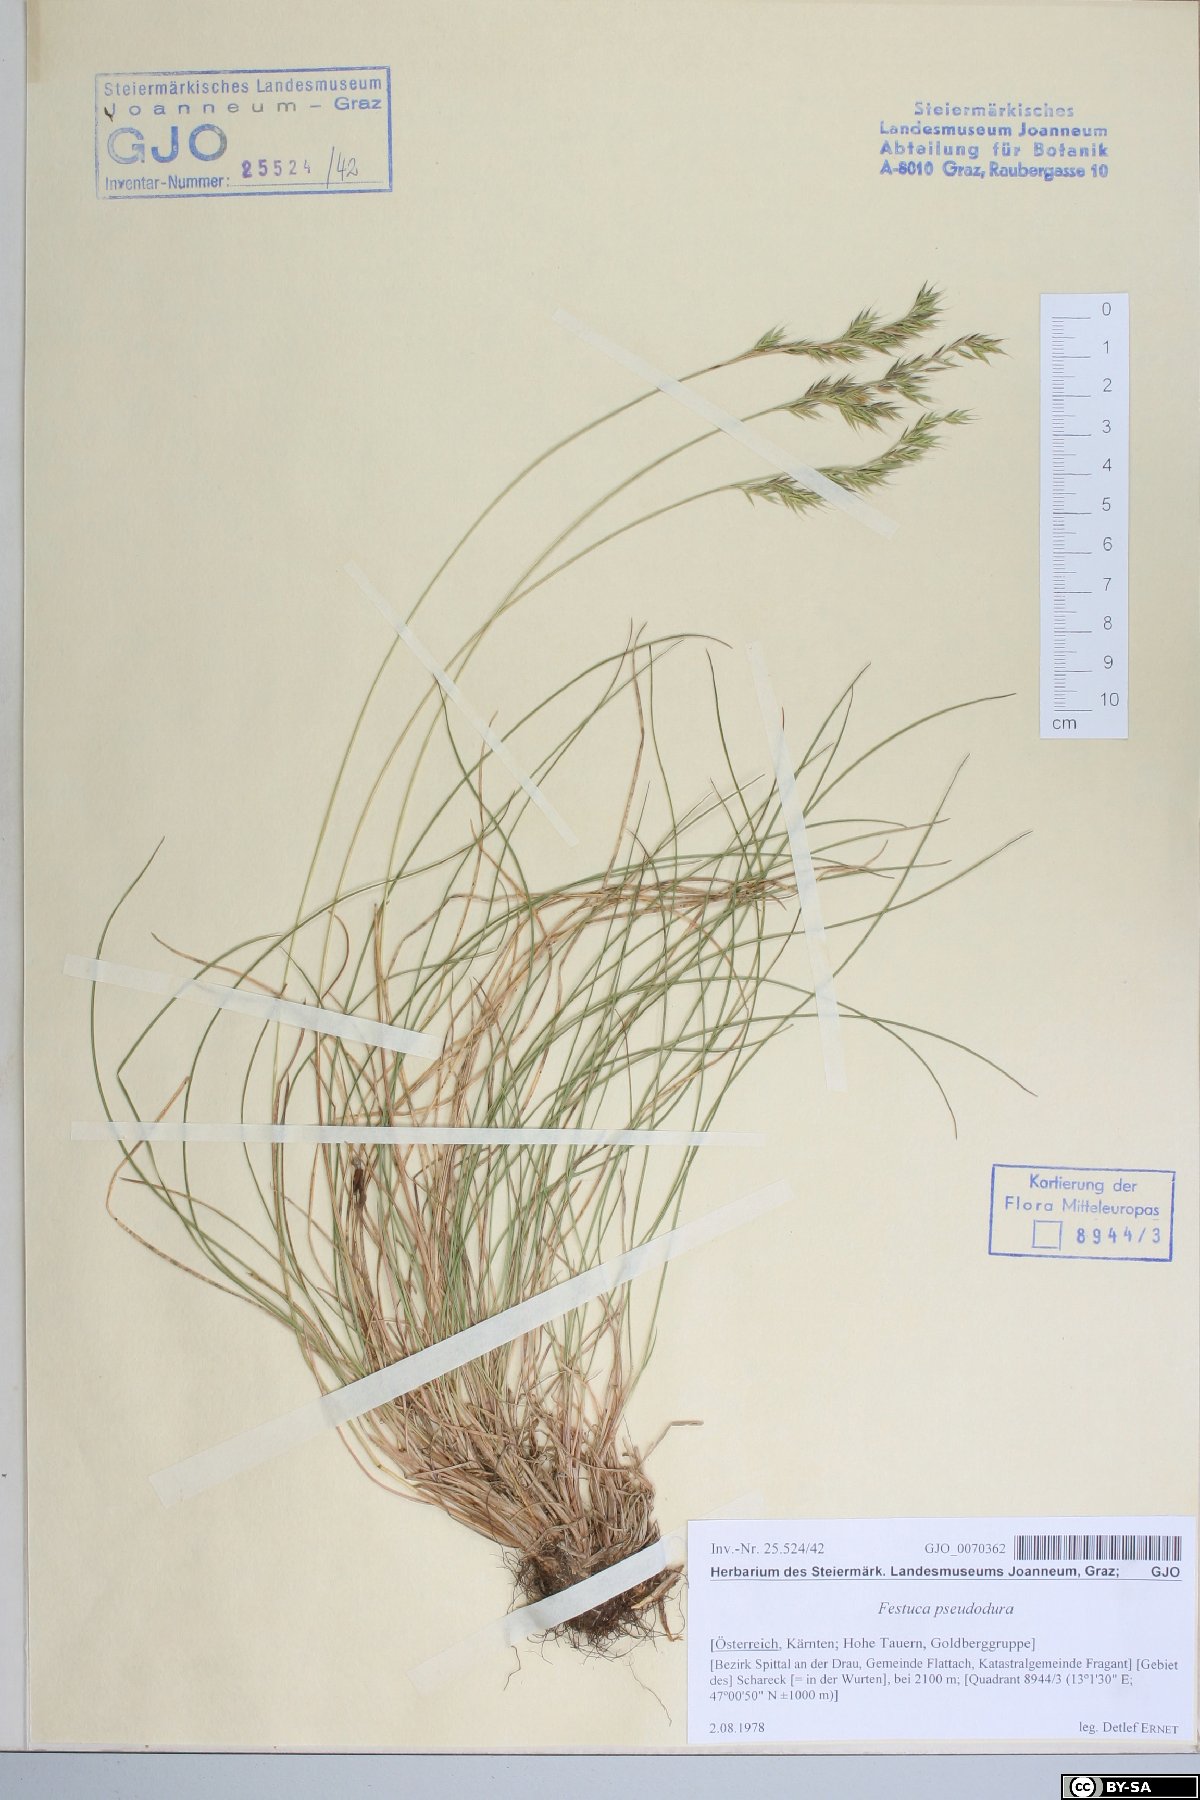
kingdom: Plantae
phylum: Tracheophyta
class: Liliopsida
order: Poales
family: Poaceae
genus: Festuca
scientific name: Festuca pseudodura
